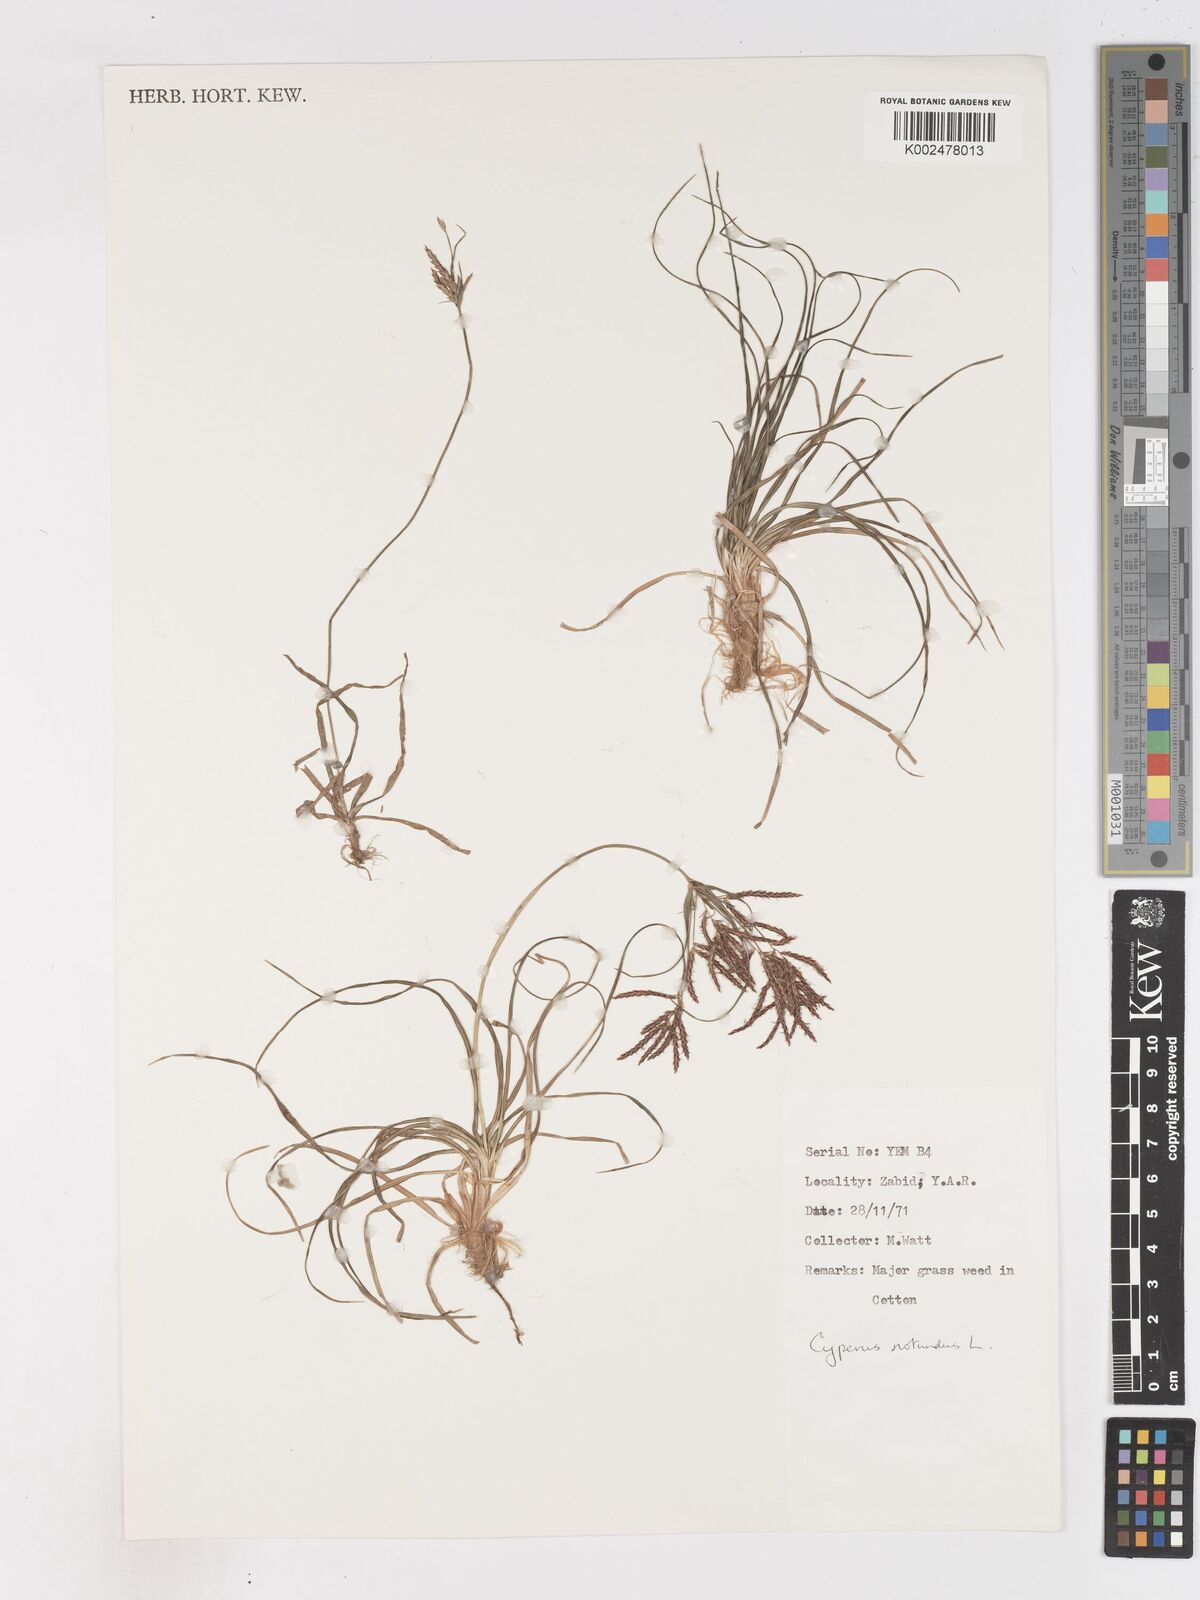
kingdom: Plantae
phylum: Tracheophyta
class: Liliopsida
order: Poales
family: Cyperaceae
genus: Cyperus
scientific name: Cyperus rotundus
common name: Nutgrass
